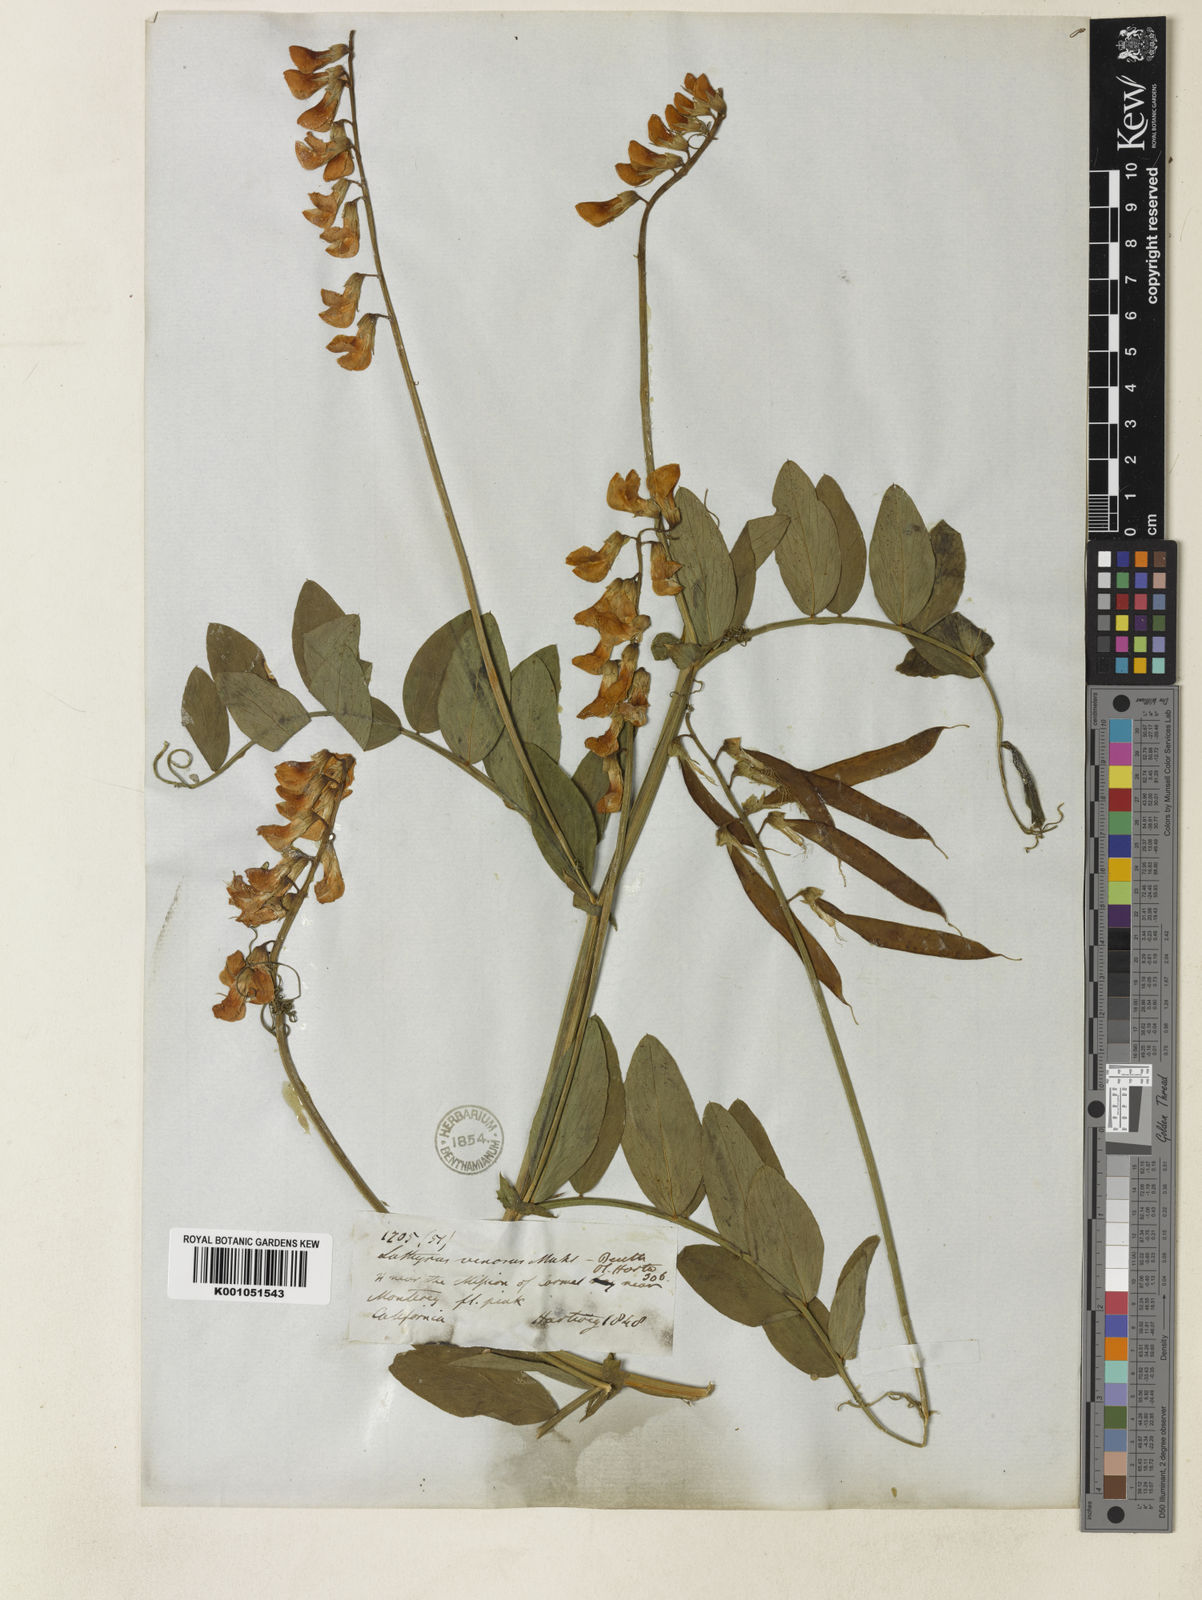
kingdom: Plantae
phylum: Tracheophyta
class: Magnoliopsida
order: Fabales
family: Fabaceae
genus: Lathyrus
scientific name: Lathyrus venosus
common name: Forest-pea
